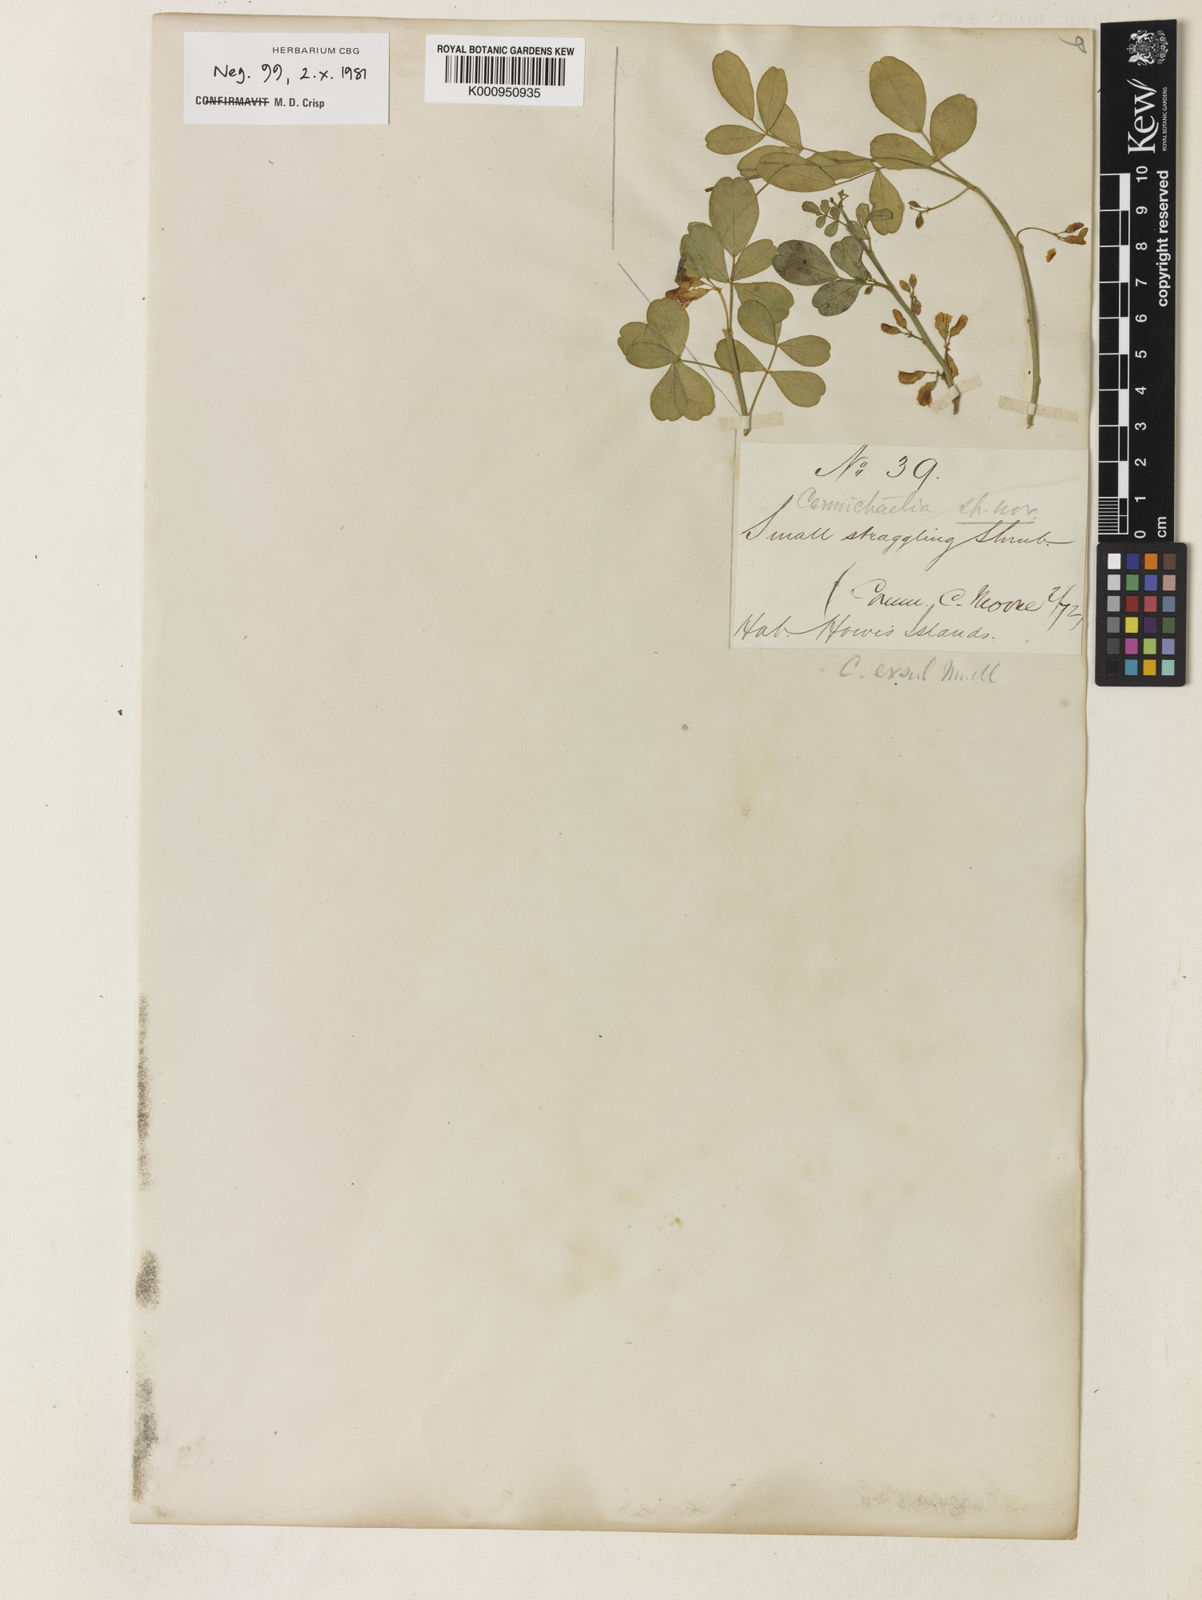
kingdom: Plantae
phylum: Tracheophyta
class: Magnoliopsida
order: Fabales
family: Fabaceae
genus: Carmichaelia
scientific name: Carmichaelia exsul
